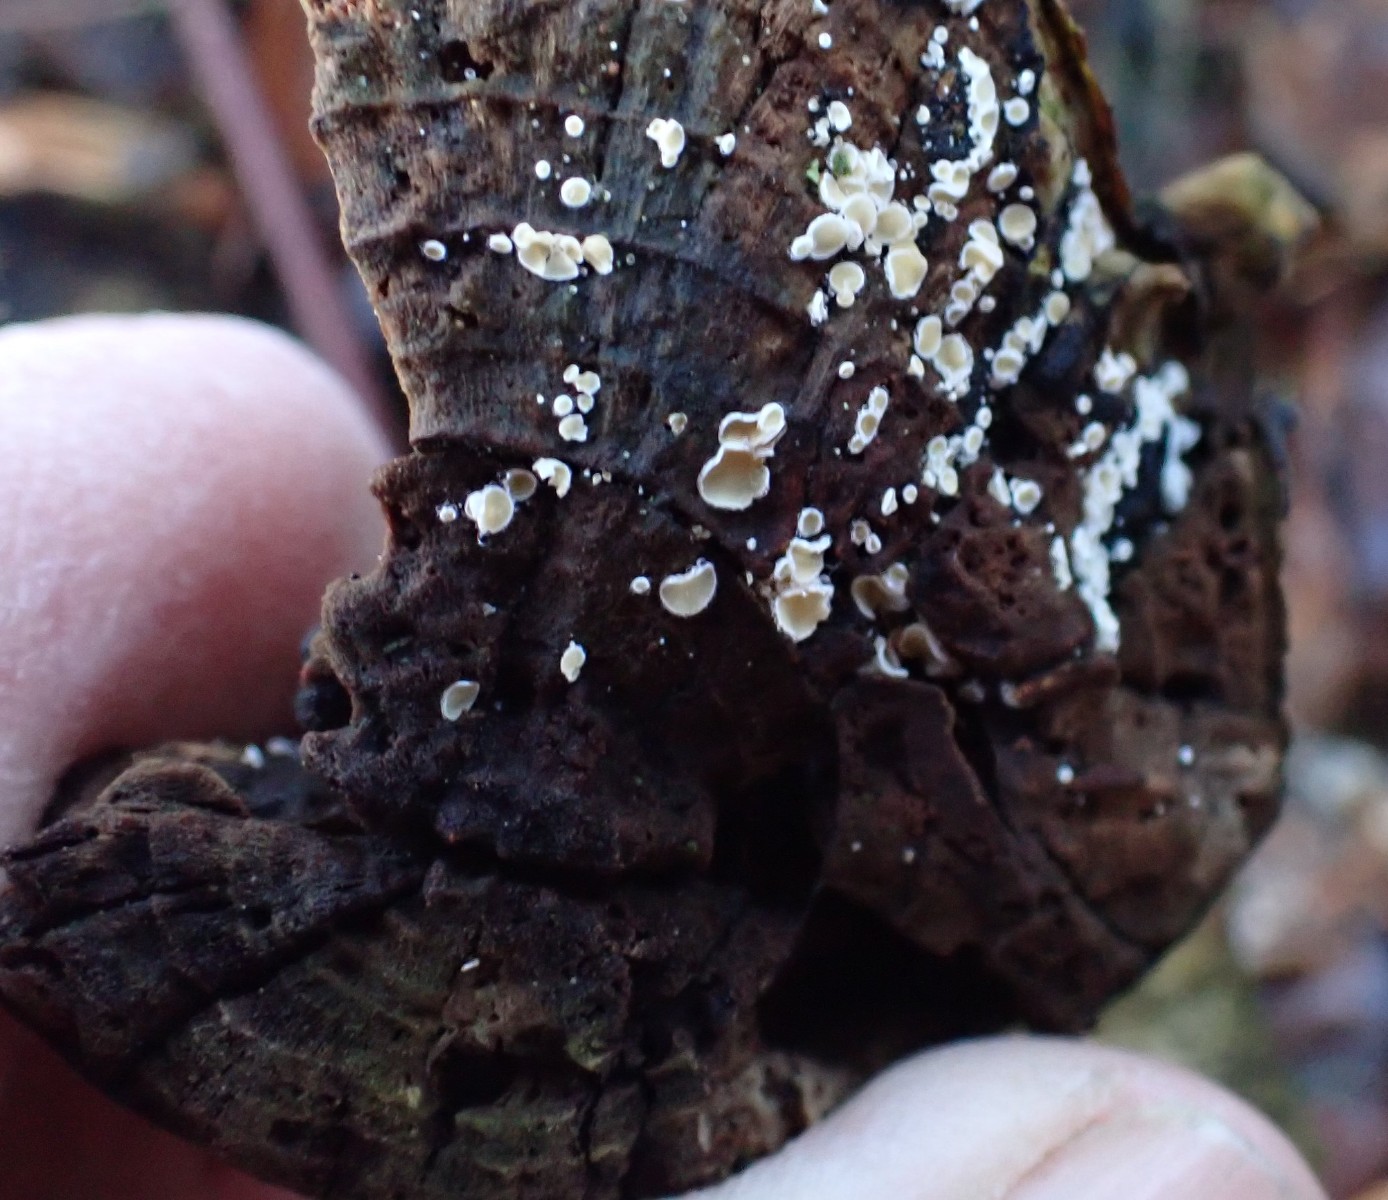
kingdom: Fungi
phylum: Ascomycota
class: Leotiomycetes
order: Helotiales
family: Lachnaceae
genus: Lachnum
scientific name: Lachnum
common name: frynseskive
